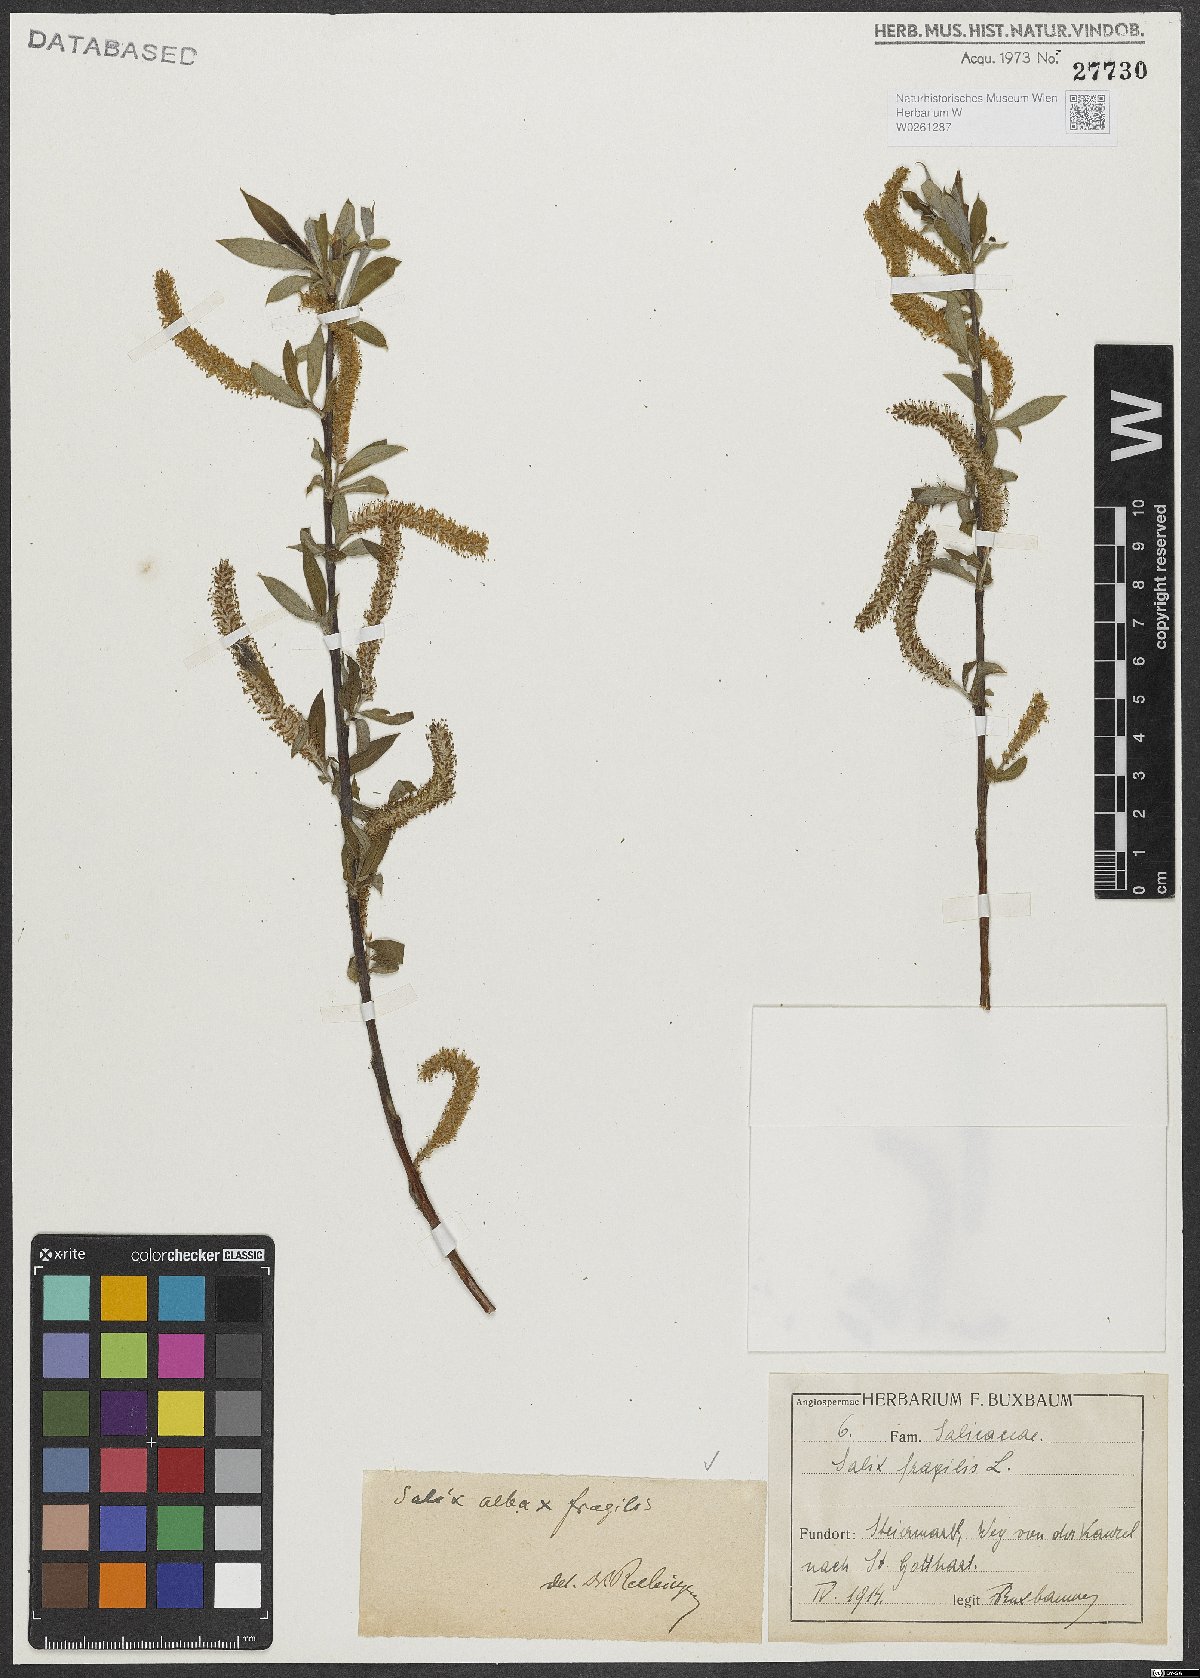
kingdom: Plantae
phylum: Tracheophyta
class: Magnoliopsida
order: Malpighiales
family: Salicaceae
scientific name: Salicaceae
